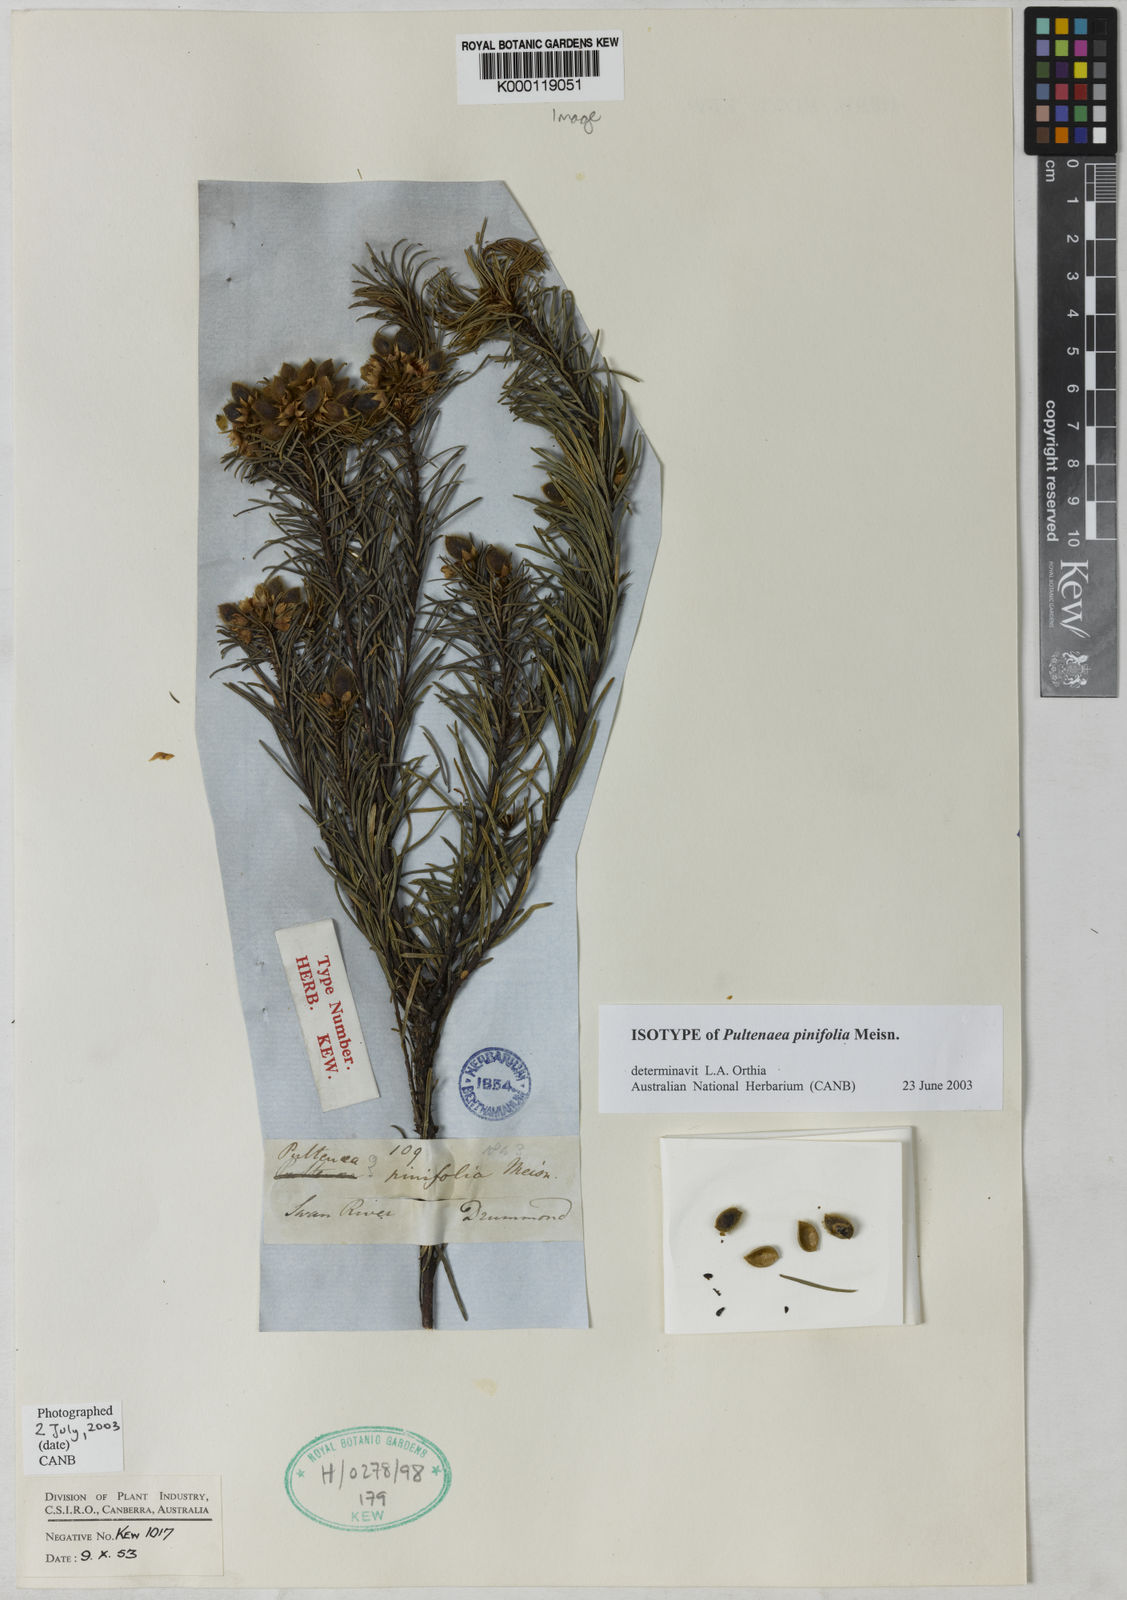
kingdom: Plantae
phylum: Tracheophyta
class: Magnoliopsida
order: Fabales
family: Fabaceae
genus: Pultenaea
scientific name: Pultenaea pinifolia
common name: Tree pultenaea
